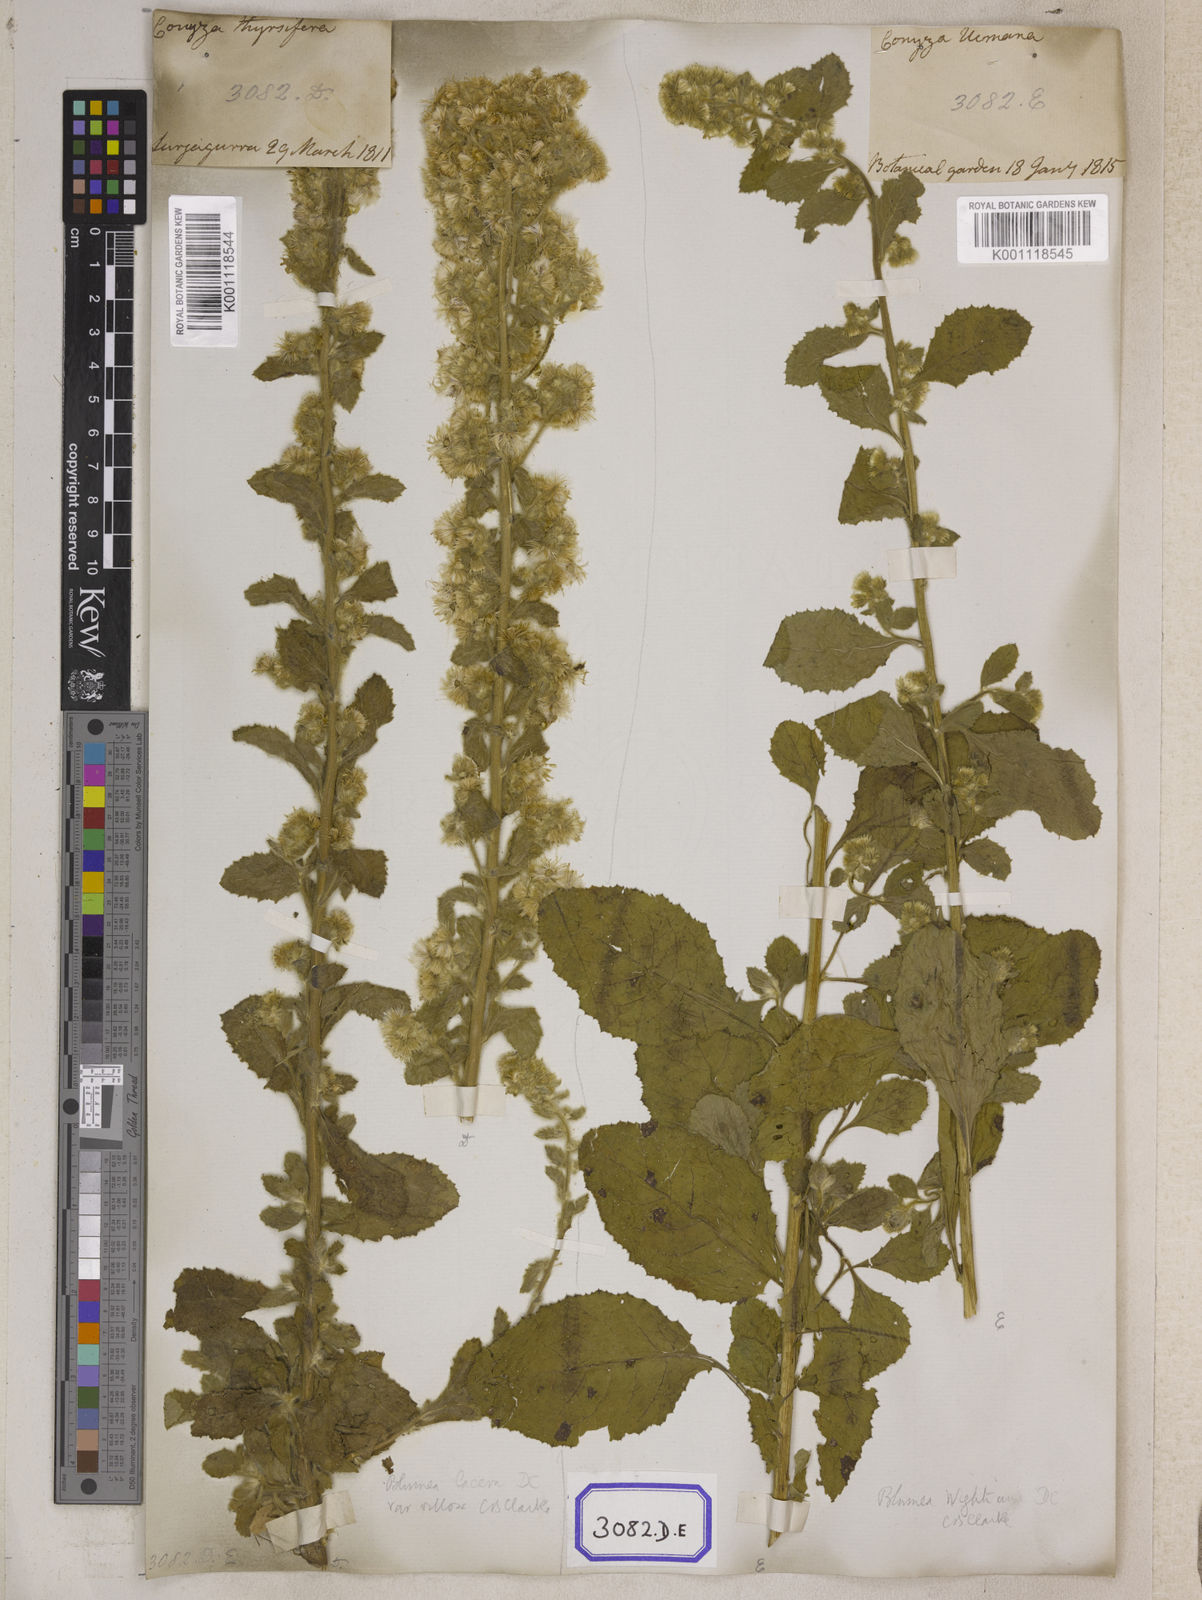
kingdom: Plantae
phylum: Tracheophyta
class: Magnoliopsida
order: Asterales
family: Asteraceae
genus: Blumea
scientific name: Blumea lacera
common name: Malay blumea
